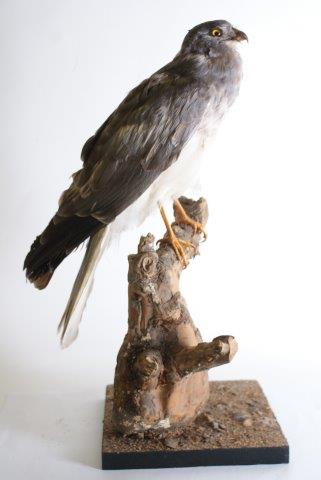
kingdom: Animalia
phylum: Chordata
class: Aves
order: Accipitriformes
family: Accipitridae
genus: Circus
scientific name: Circus cyaneus
